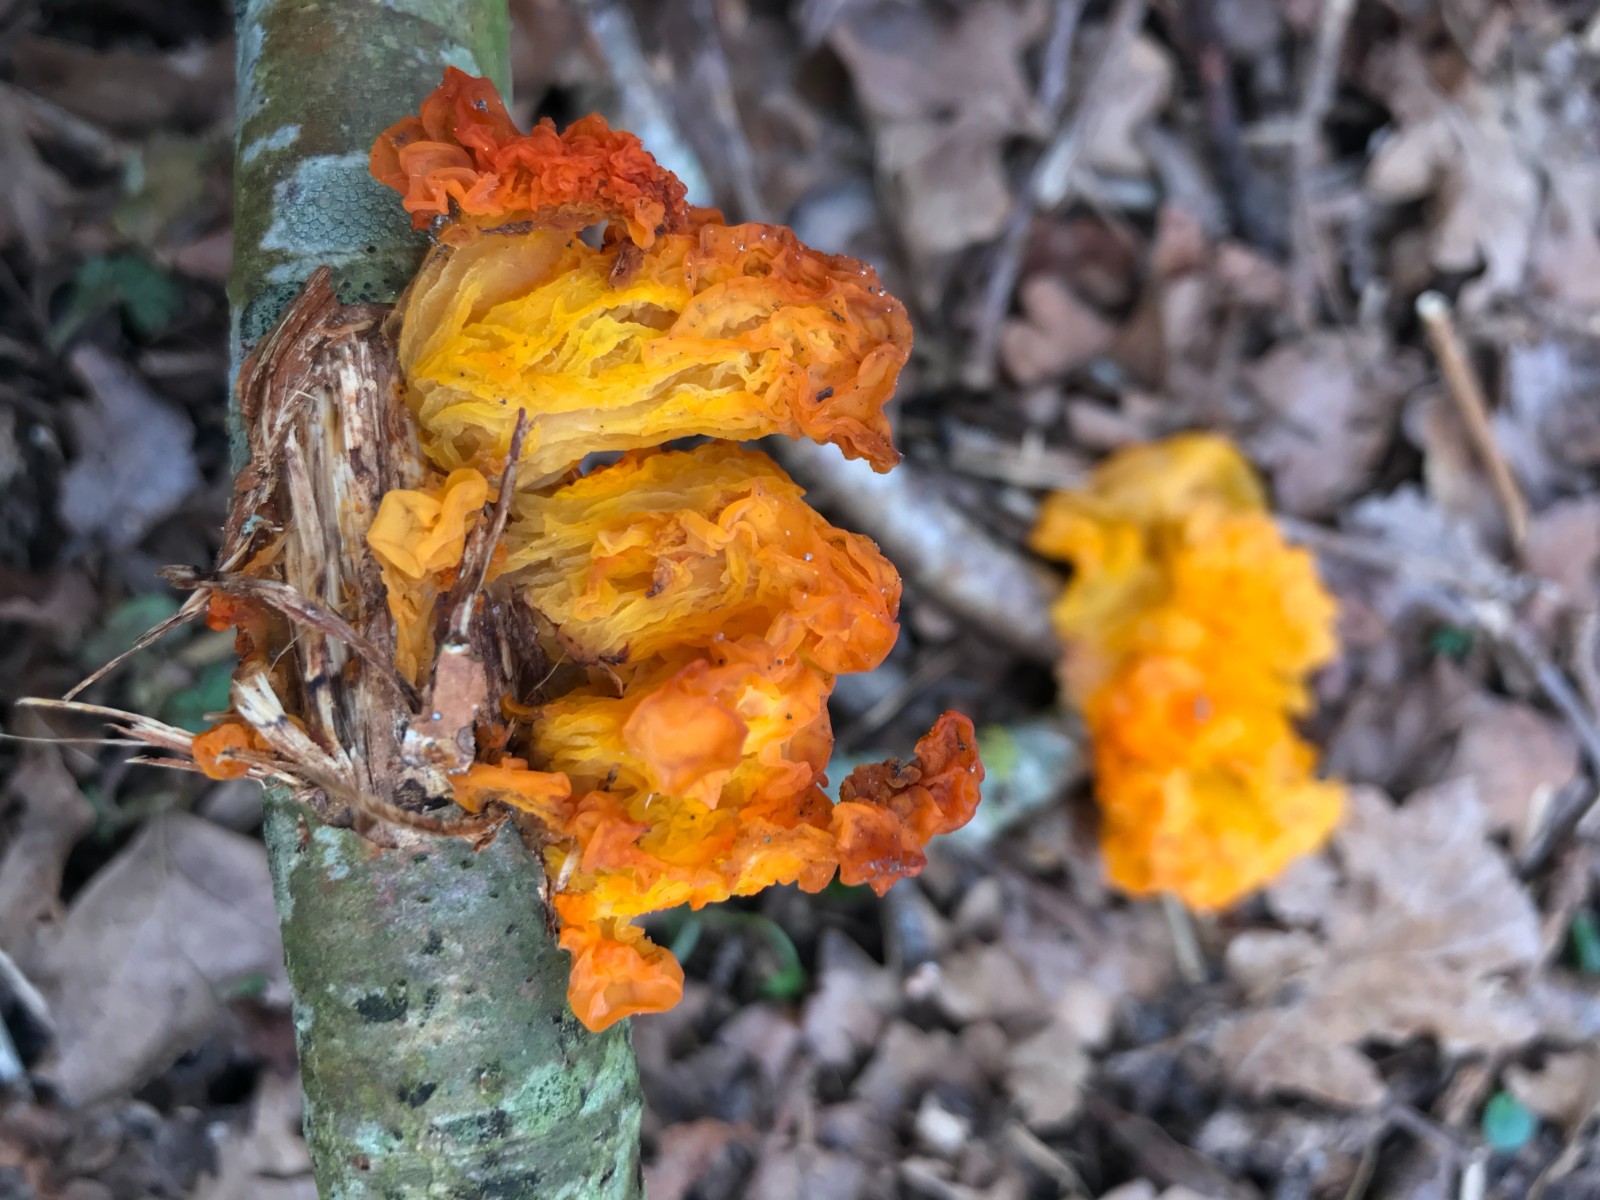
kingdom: Fungi
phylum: Basidiomycota
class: Tremellomycetes
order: Tremellales
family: Tremellaceae
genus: Tremella
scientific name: Tremella mesenterica
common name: gul bævresvamp
